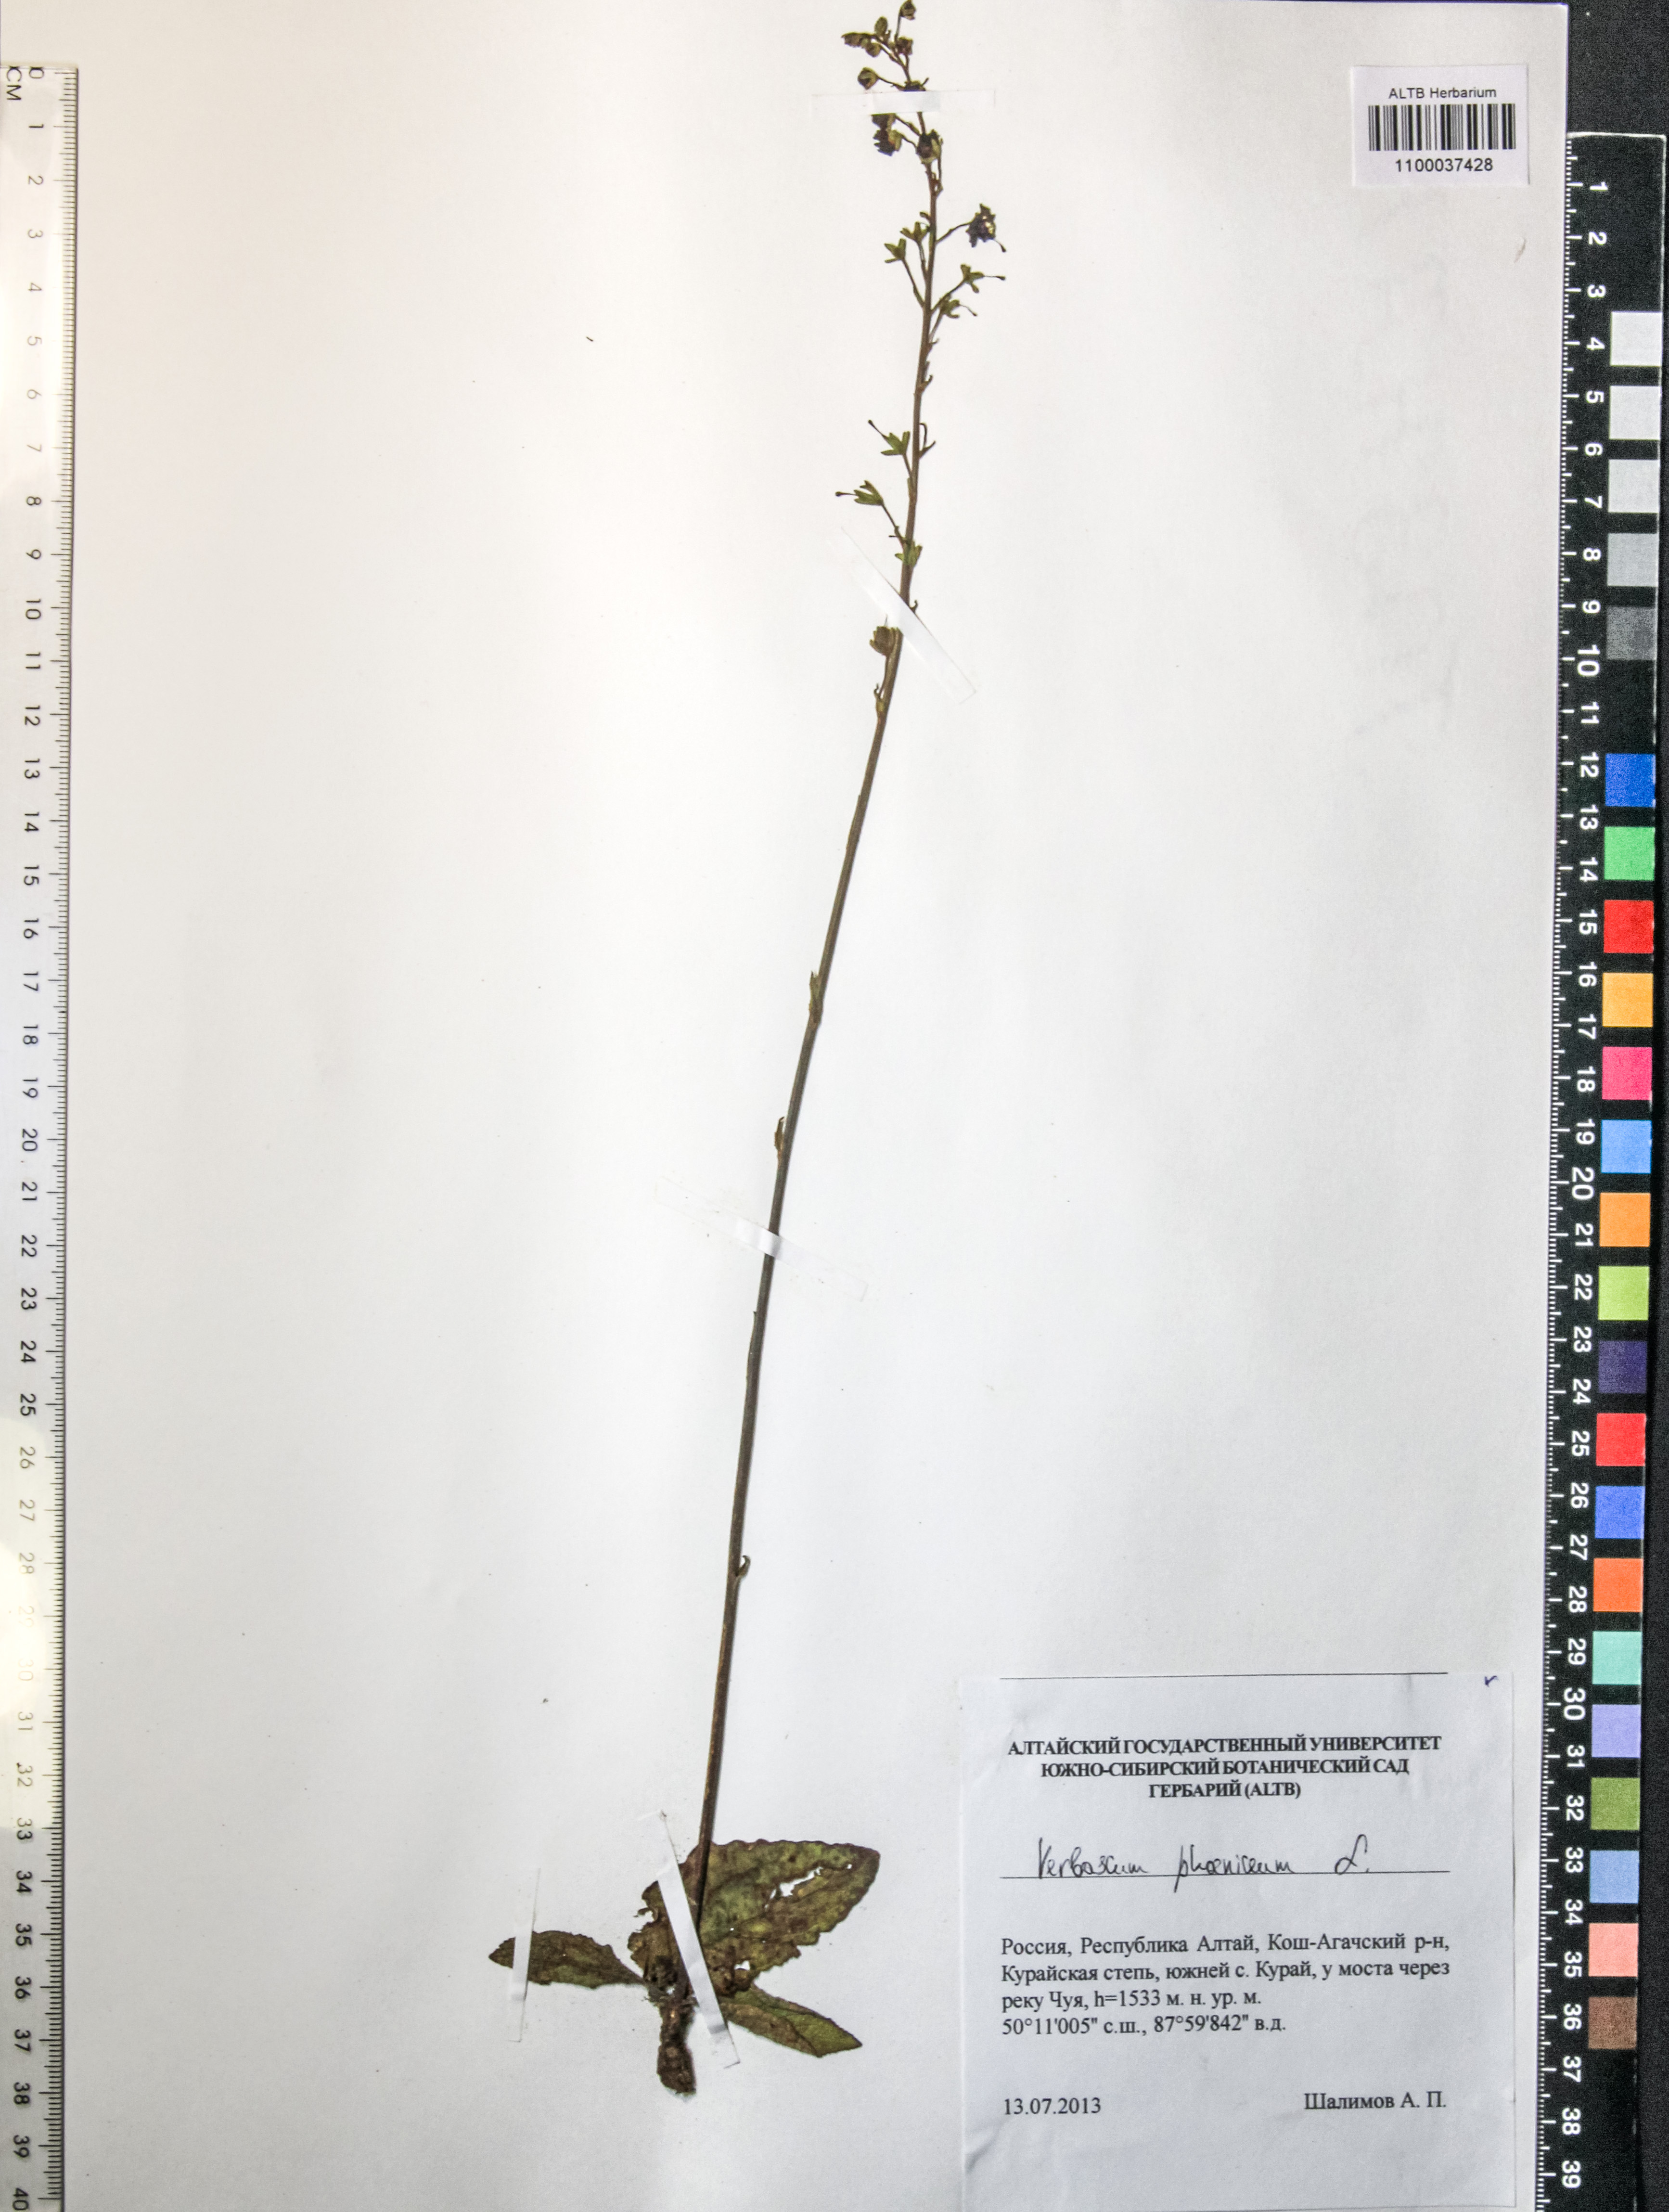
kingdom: Plantae
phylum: Tracheophyta
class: Magnoliopsida
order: Lamiales
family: Scrophulariaceae
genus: Verbascum
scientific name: Verbascum phoeniceum
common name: Purple mullein
